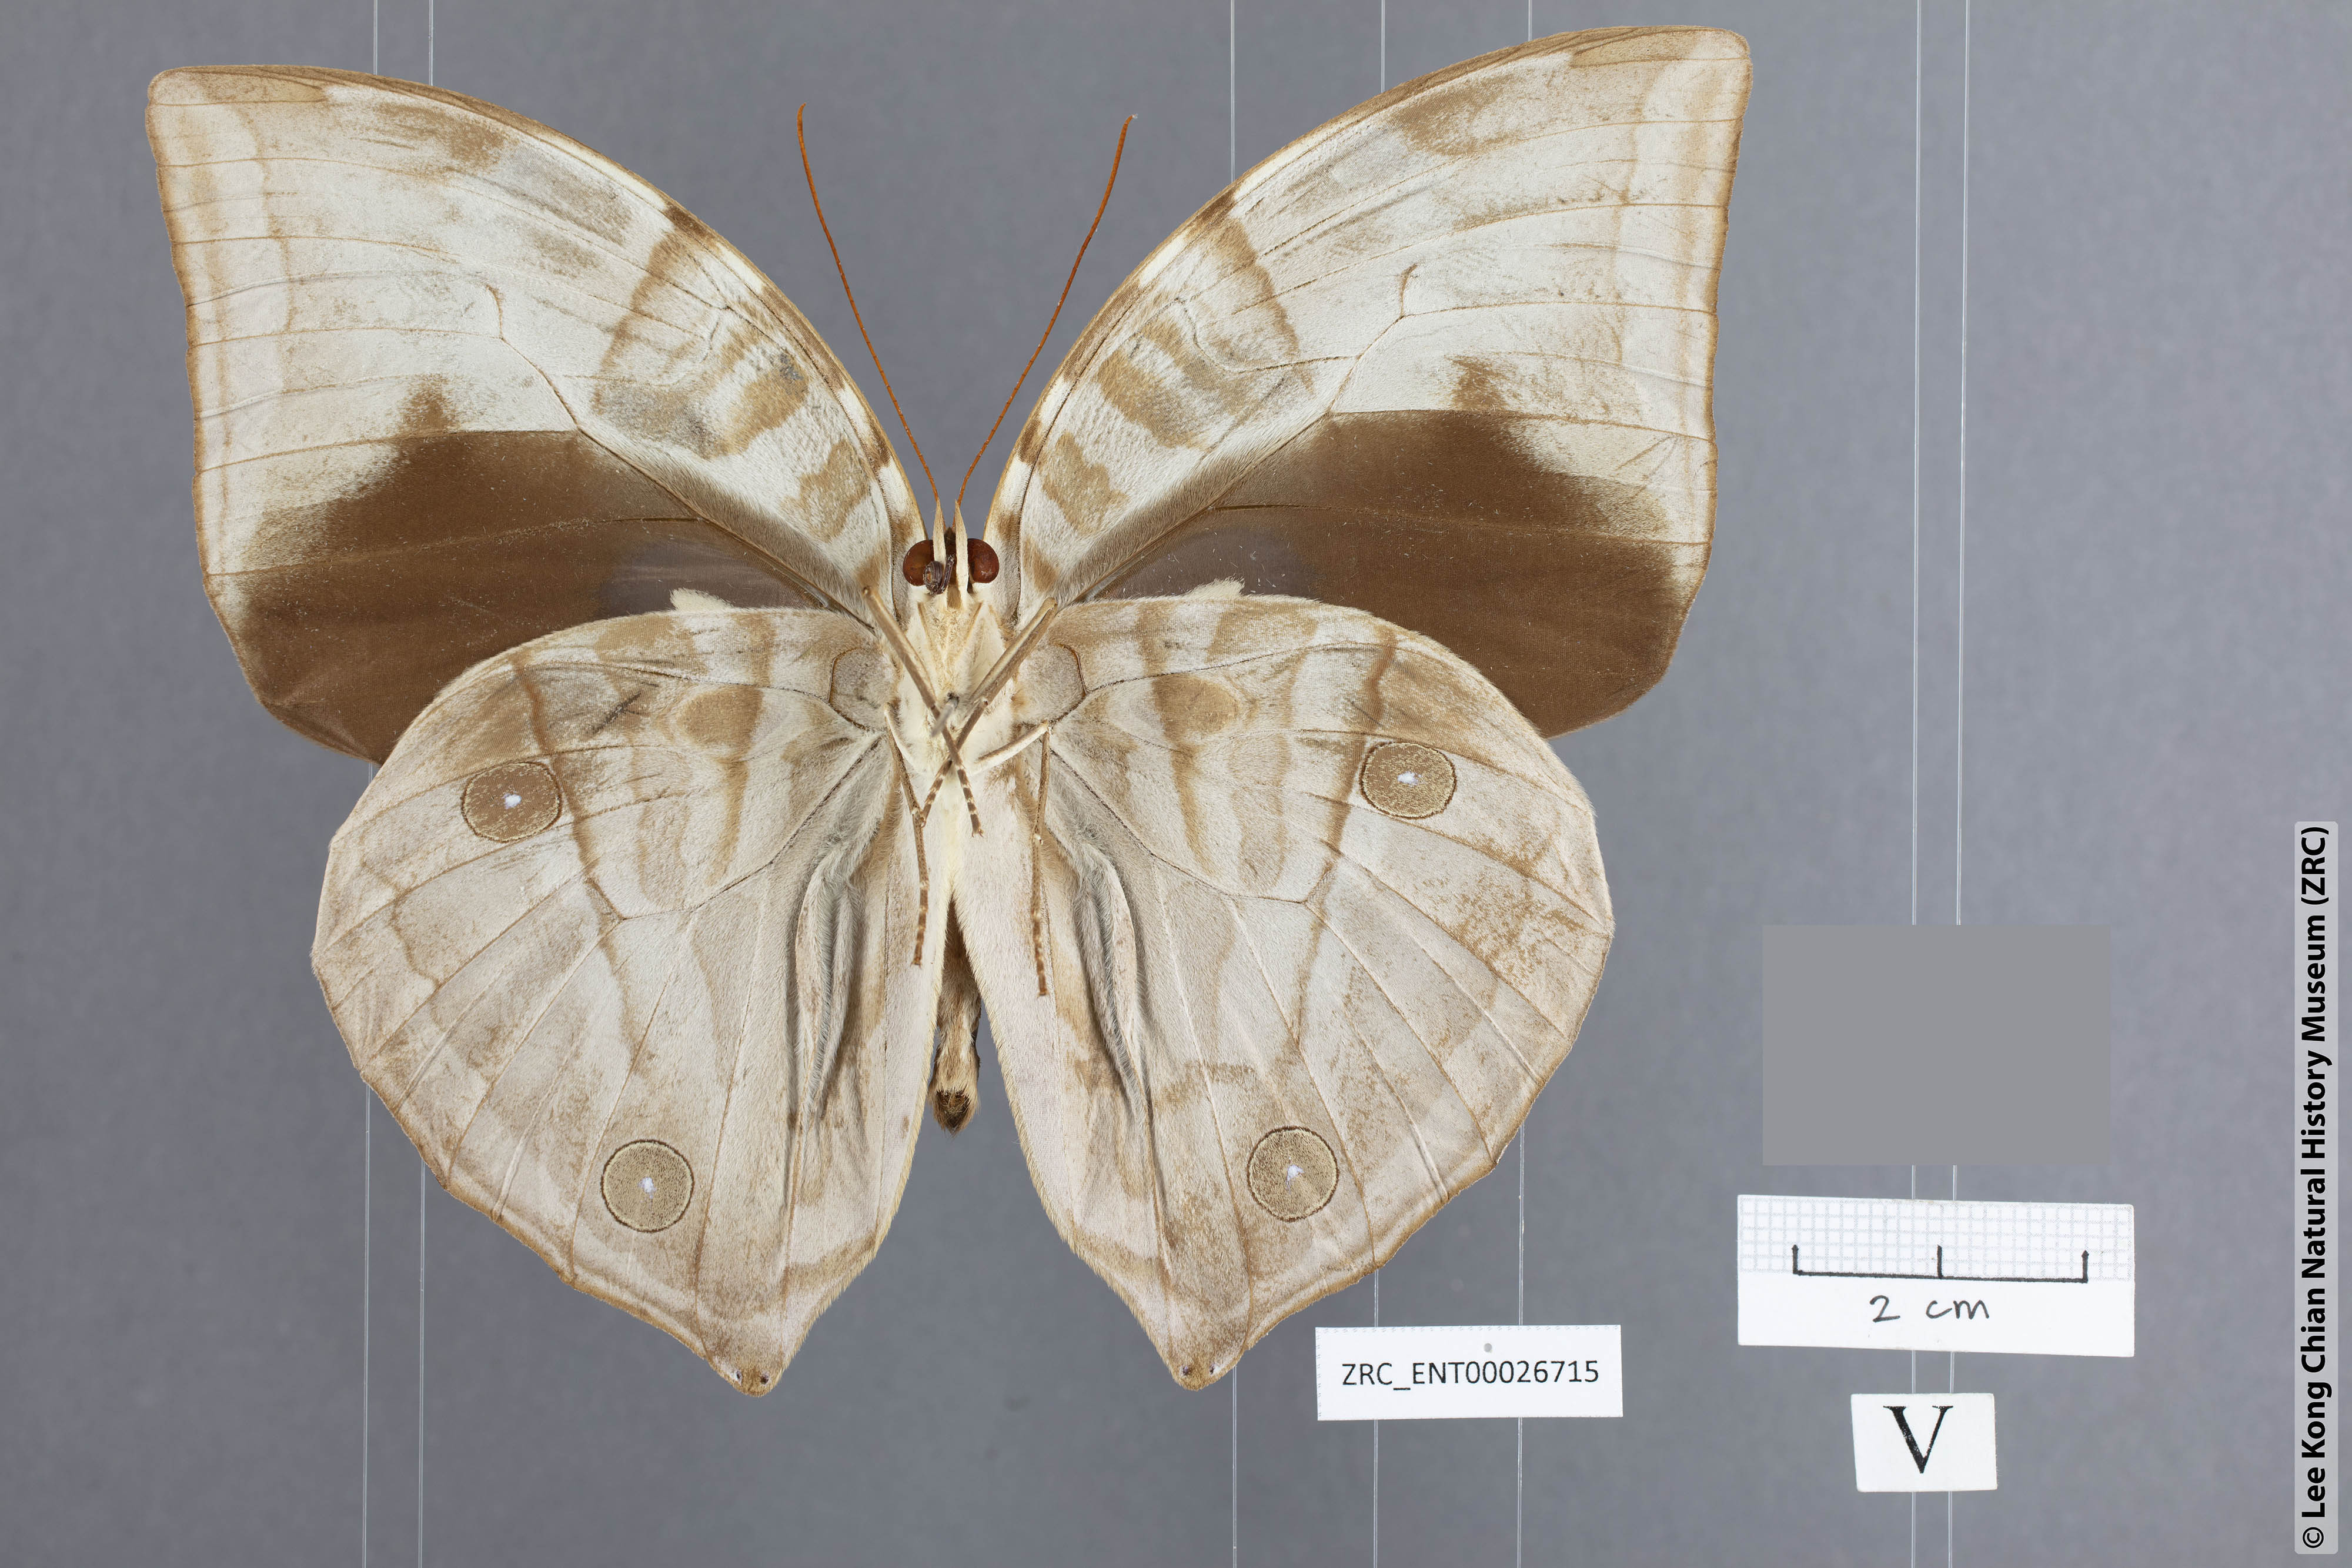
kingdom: Animalia
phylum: Arthropoda
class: Insecta
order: Lepidoptera
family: Nymphalidae
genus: Zeuxidia
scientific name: Zeuxidia aurelia
